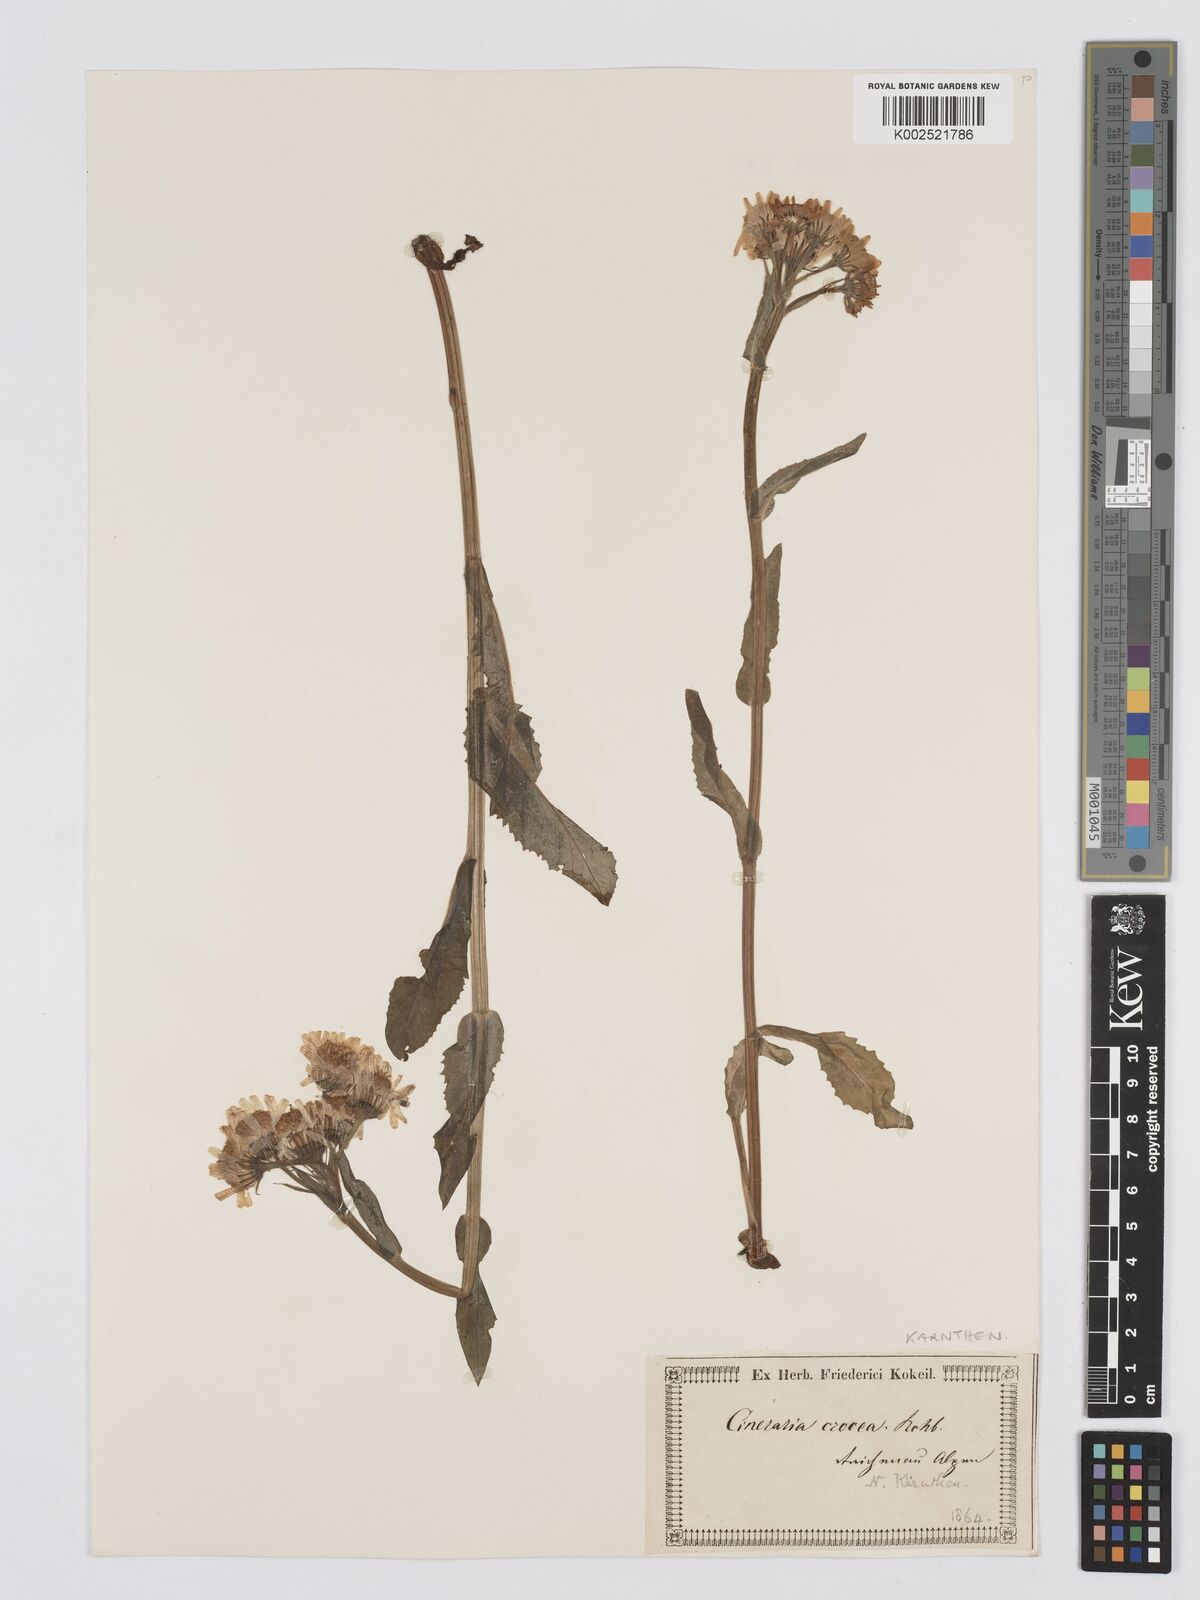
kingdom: Plantae
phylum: Tracheophyta
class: Magnoliopsida
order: Asterales
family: Asteraceae
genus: Tephroseris
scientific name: Tephroseris crispa
